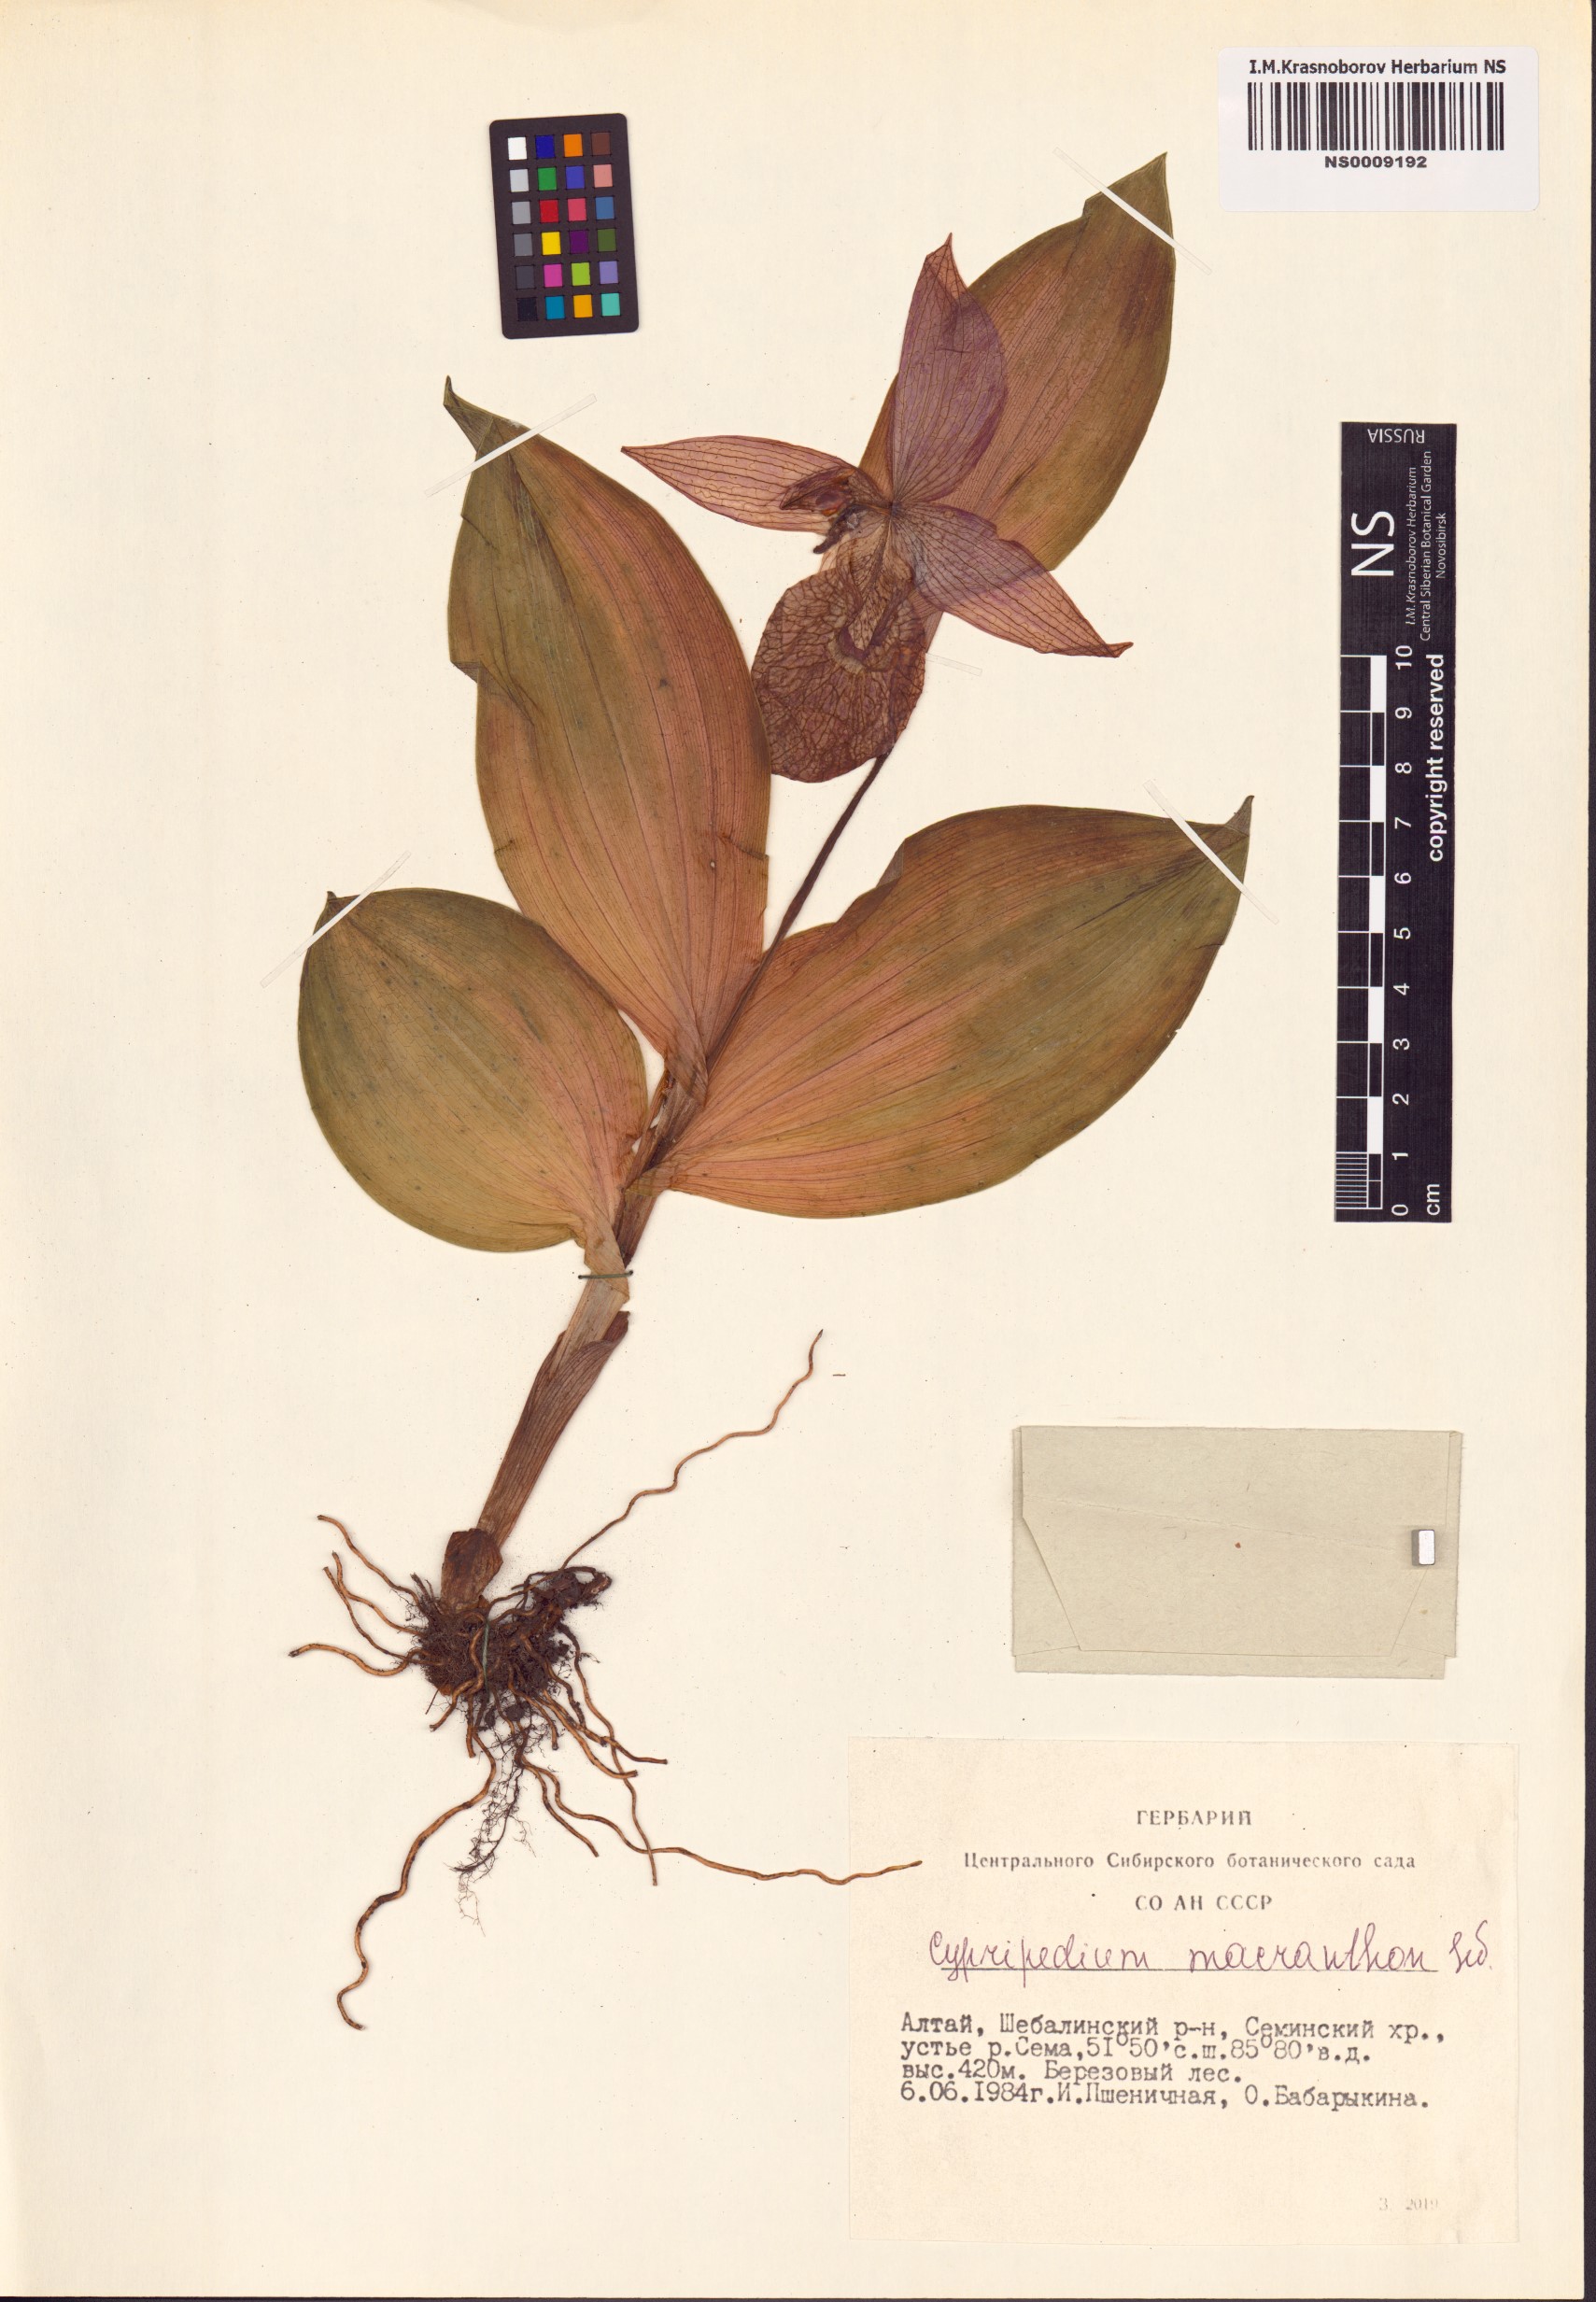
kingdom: Plantae
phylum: Tracheophyta
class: Liliopsida
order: Asparagales
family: Orchidaceae
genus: Cypripedium
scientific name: Cypripedium macranthos
